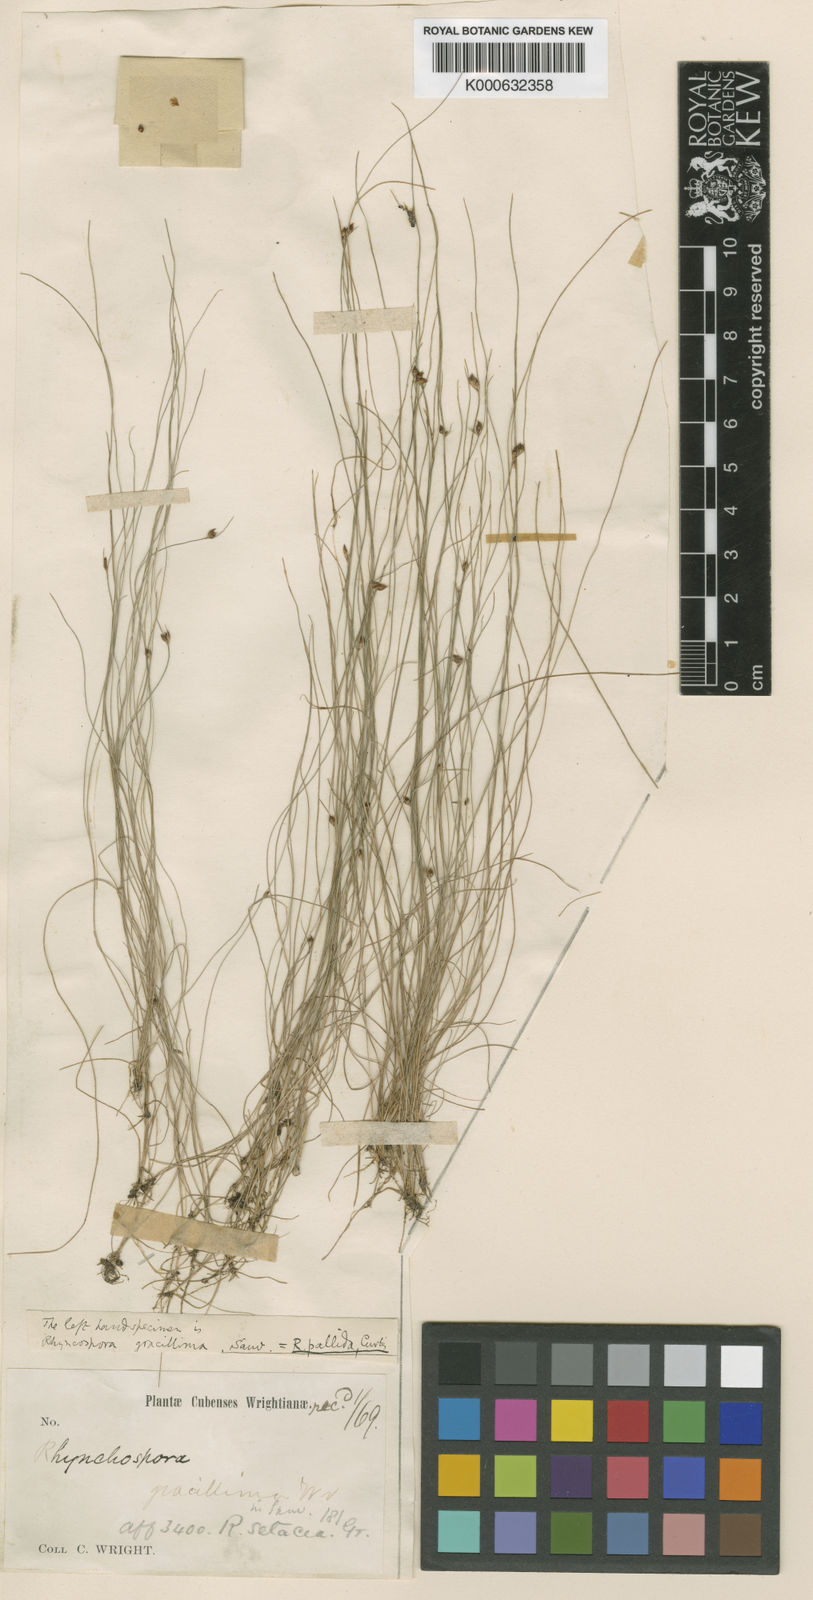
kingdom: Plantae
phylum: Tracheophyta
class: Liliopsida
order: Poales
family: Cyperaceae
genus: Rhynchospora
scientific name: Rhynchospora fascicularis
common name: Fascicled beak sedge
